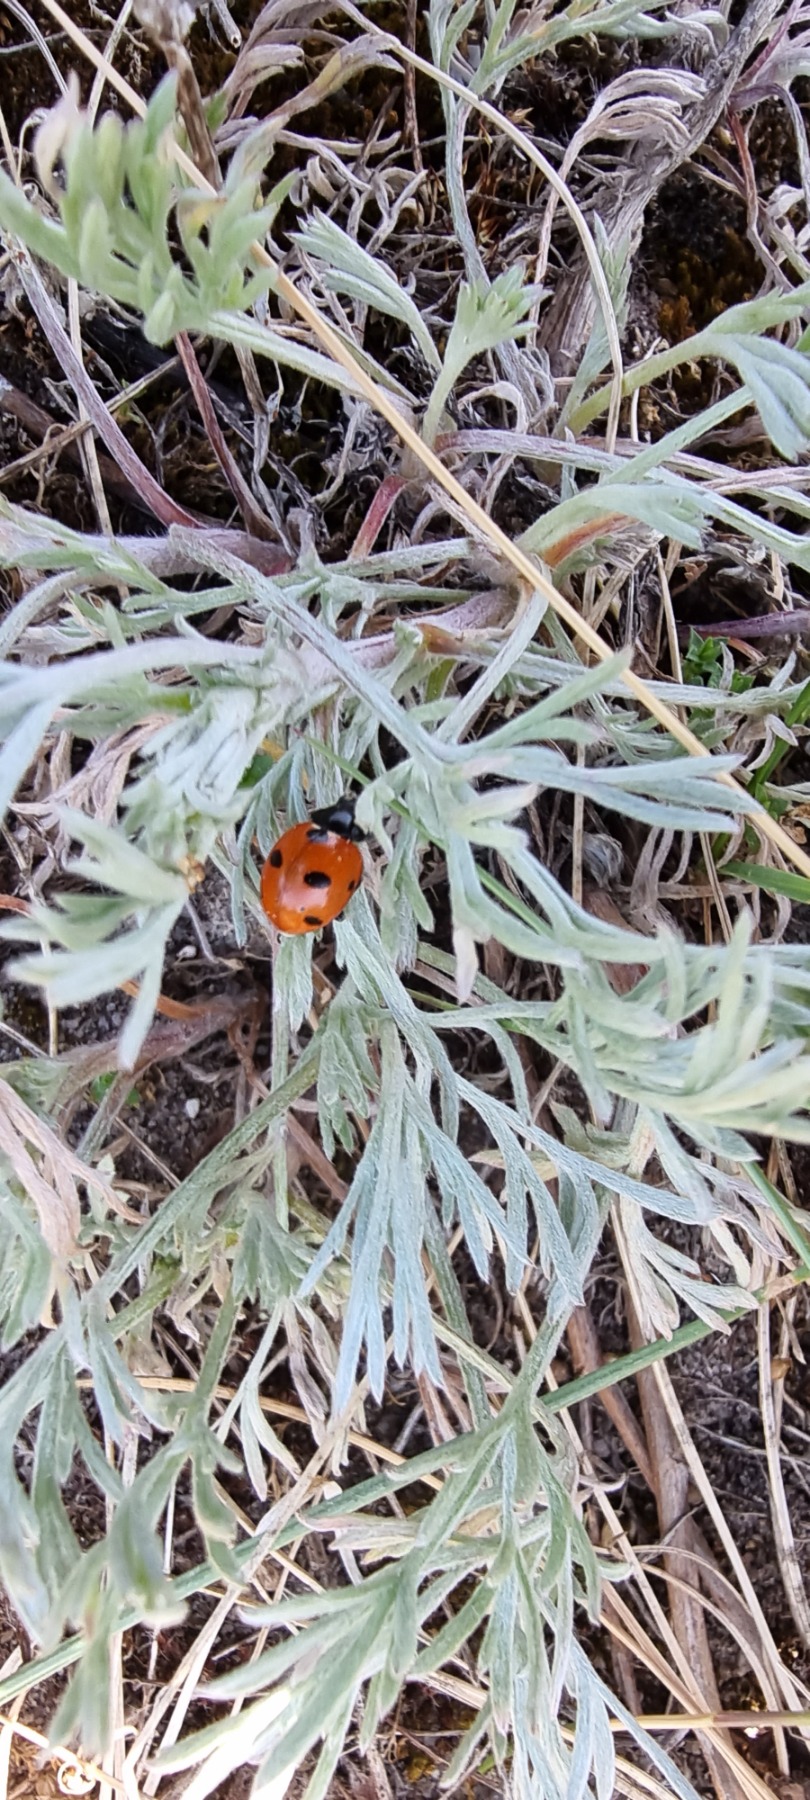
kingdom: Animalia
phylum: Arthropoda
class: Insecta
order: Coleoptera
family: Coccinellidae
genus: Coccinella
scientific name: Coccinella septempunctata
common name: Syvplettet mariehøne
